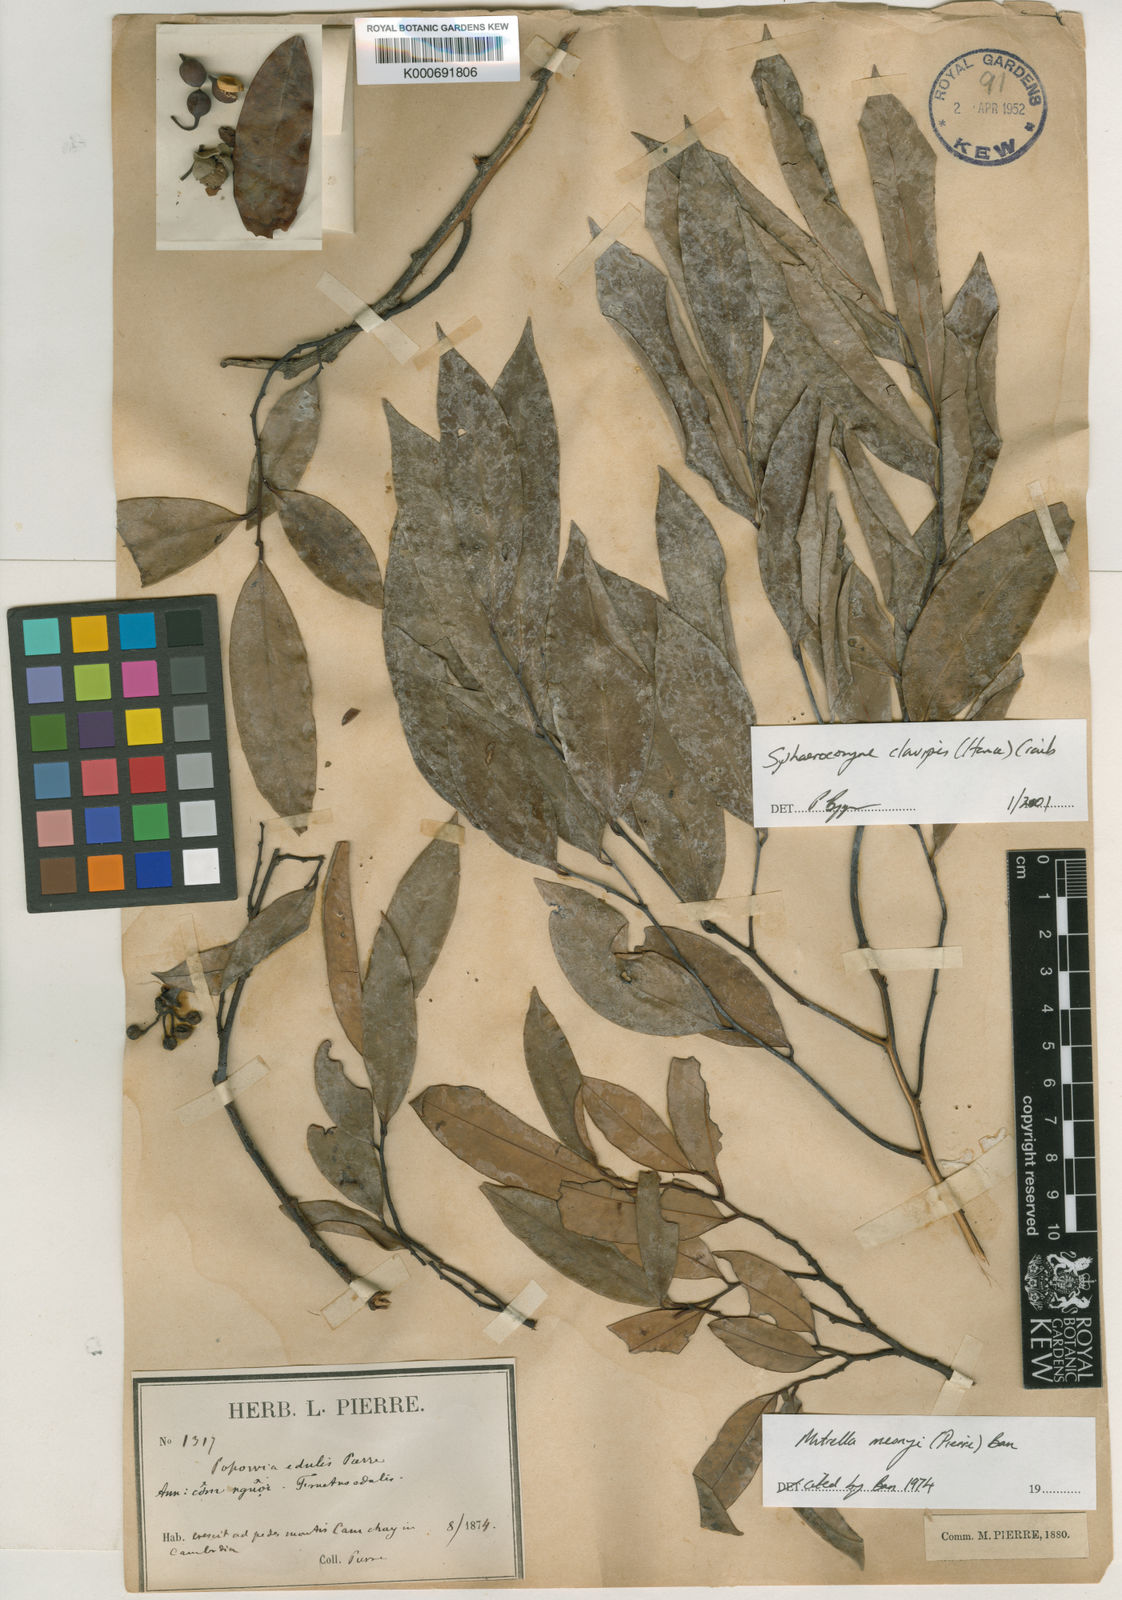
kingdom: Plantae
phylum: Tracheophyta
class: Magnoliopsida
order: Magnoliales
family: Annonaceae
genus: Sphaerocoryne
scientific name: Sphaerocoryne affinis
